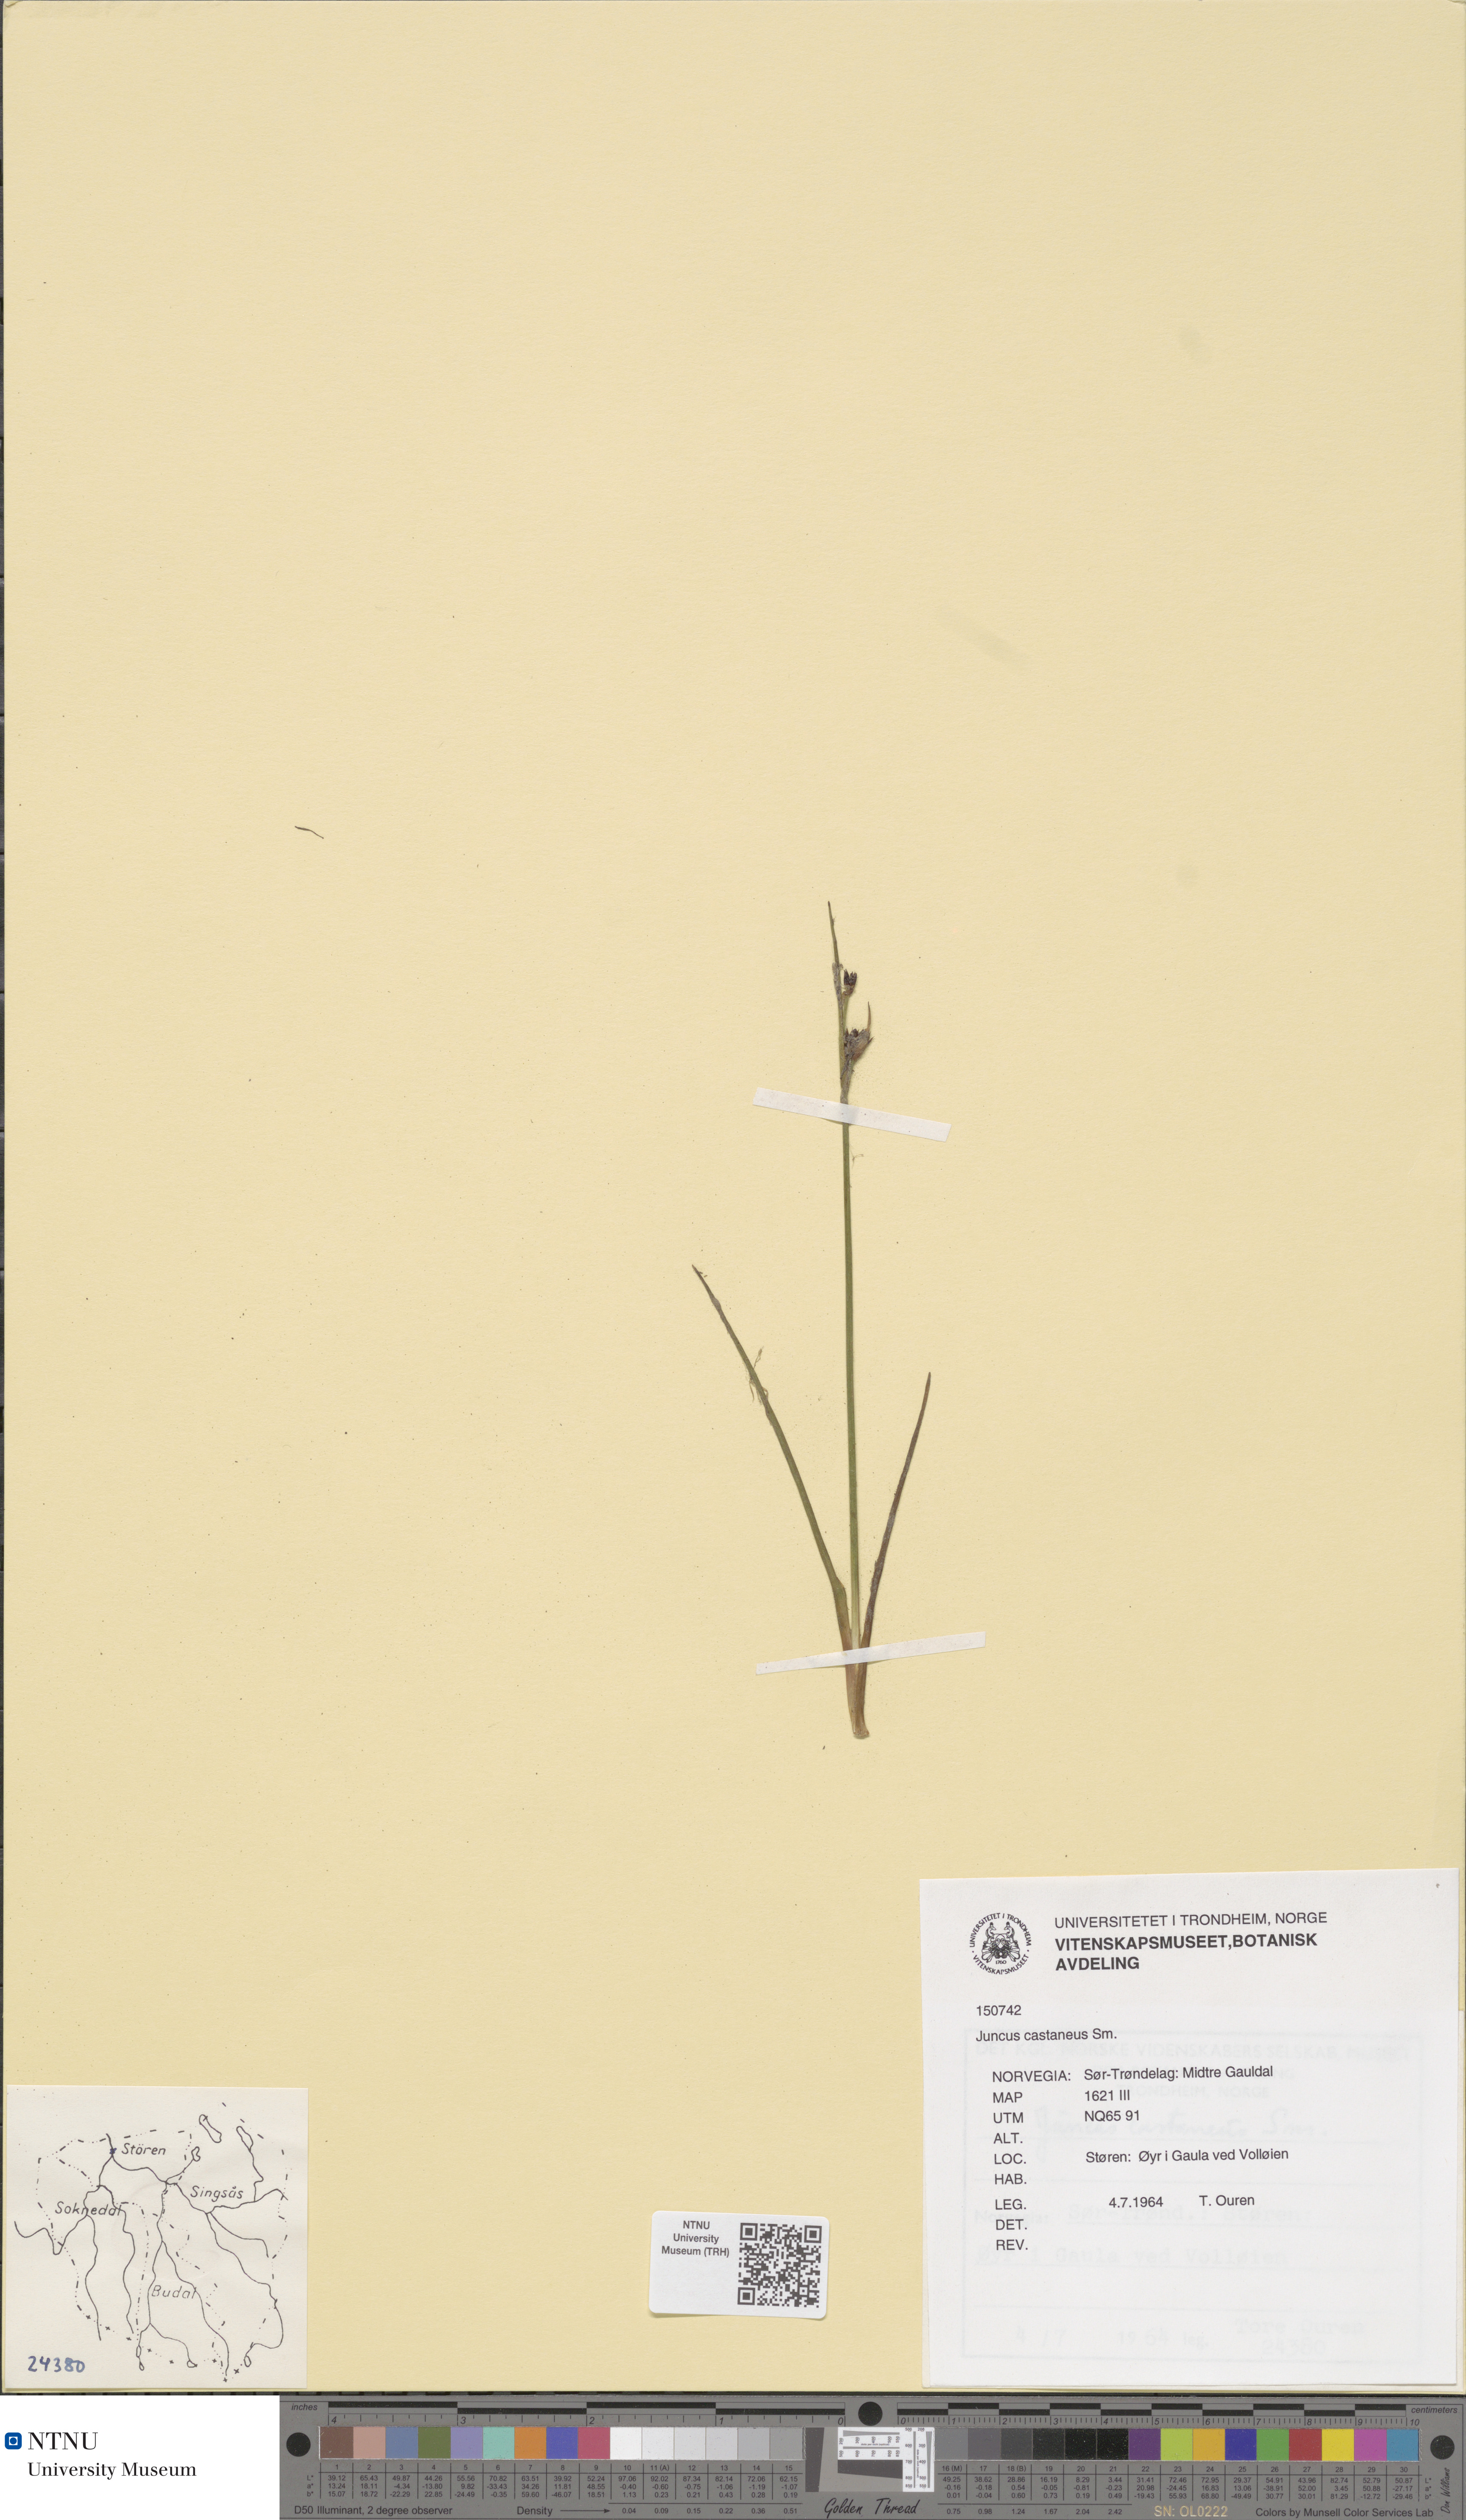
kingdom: Plantae
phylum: Tracheophyta
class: Liliopsida
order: Poales
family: Juncaceae
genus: Juncus
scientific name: Juncus castaneus
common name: Chestnut rush
